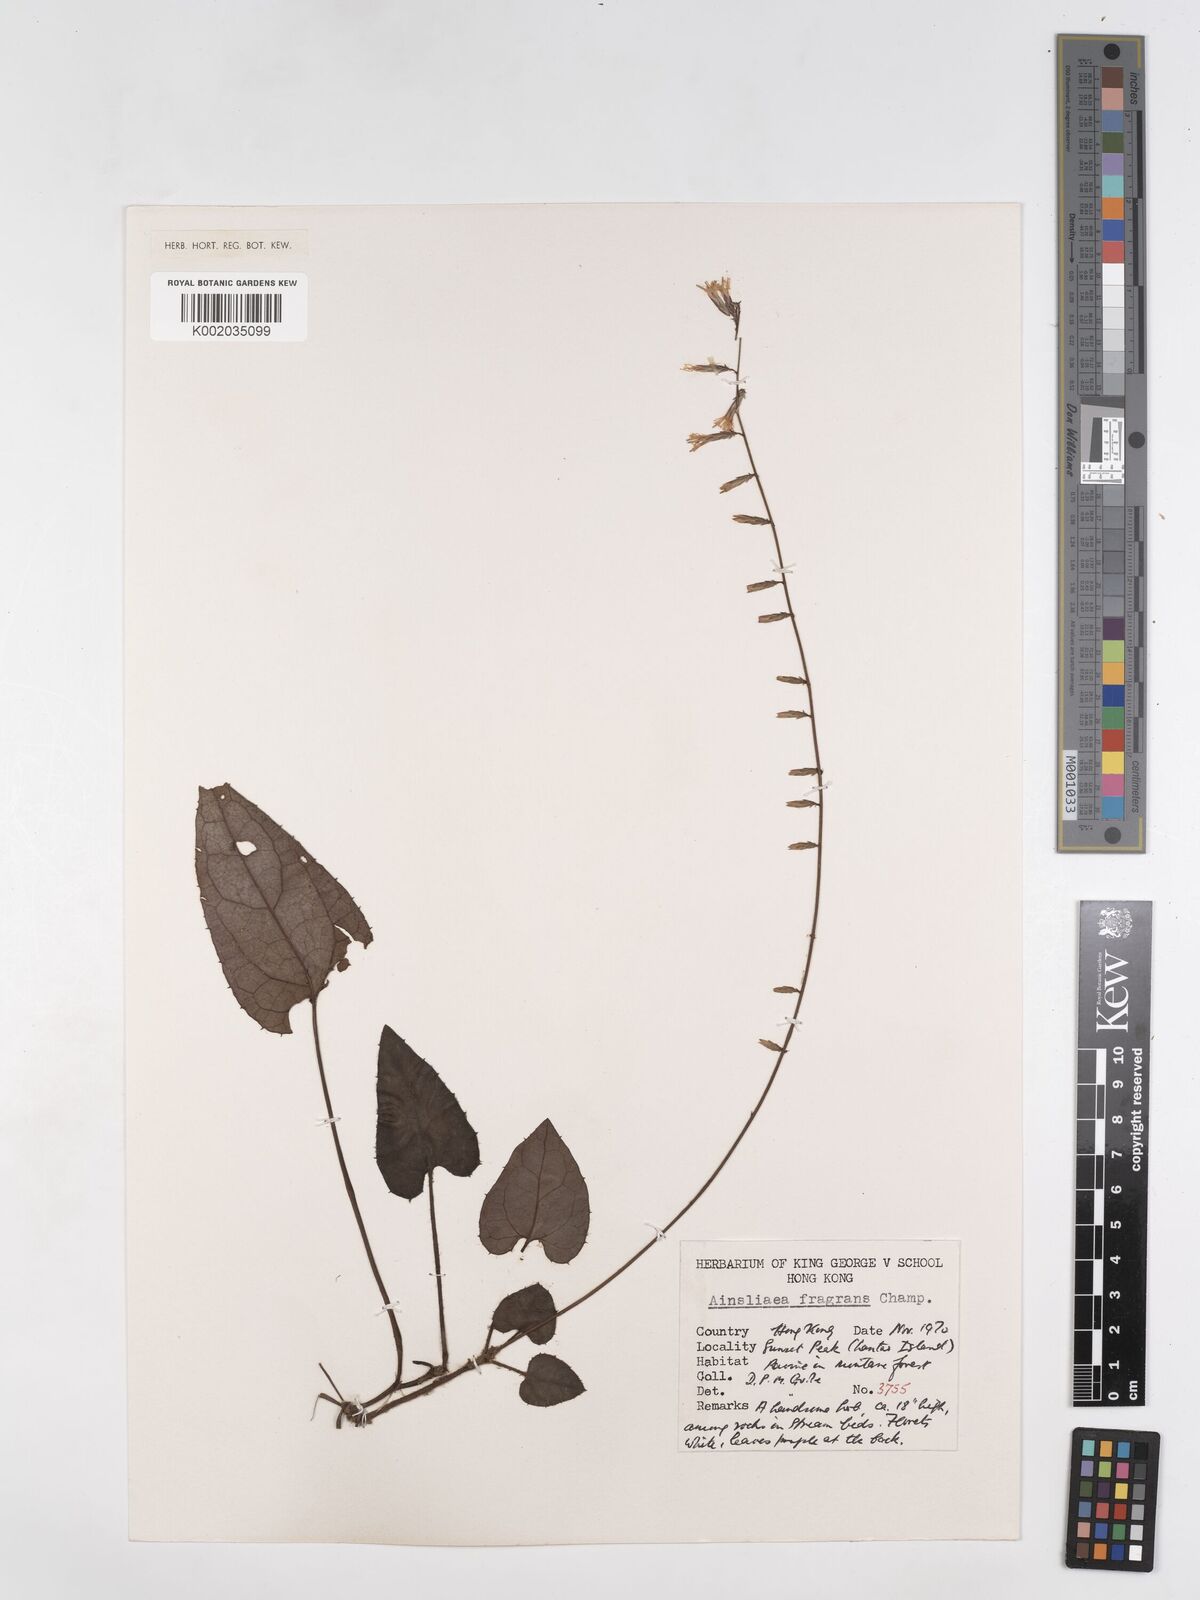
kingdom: Plantae
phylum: Tracheophyta
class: Magnoliopsida
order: Asterales
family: Asteraceae
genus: Ainsliaea
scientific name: Ainsliaea fragrans
